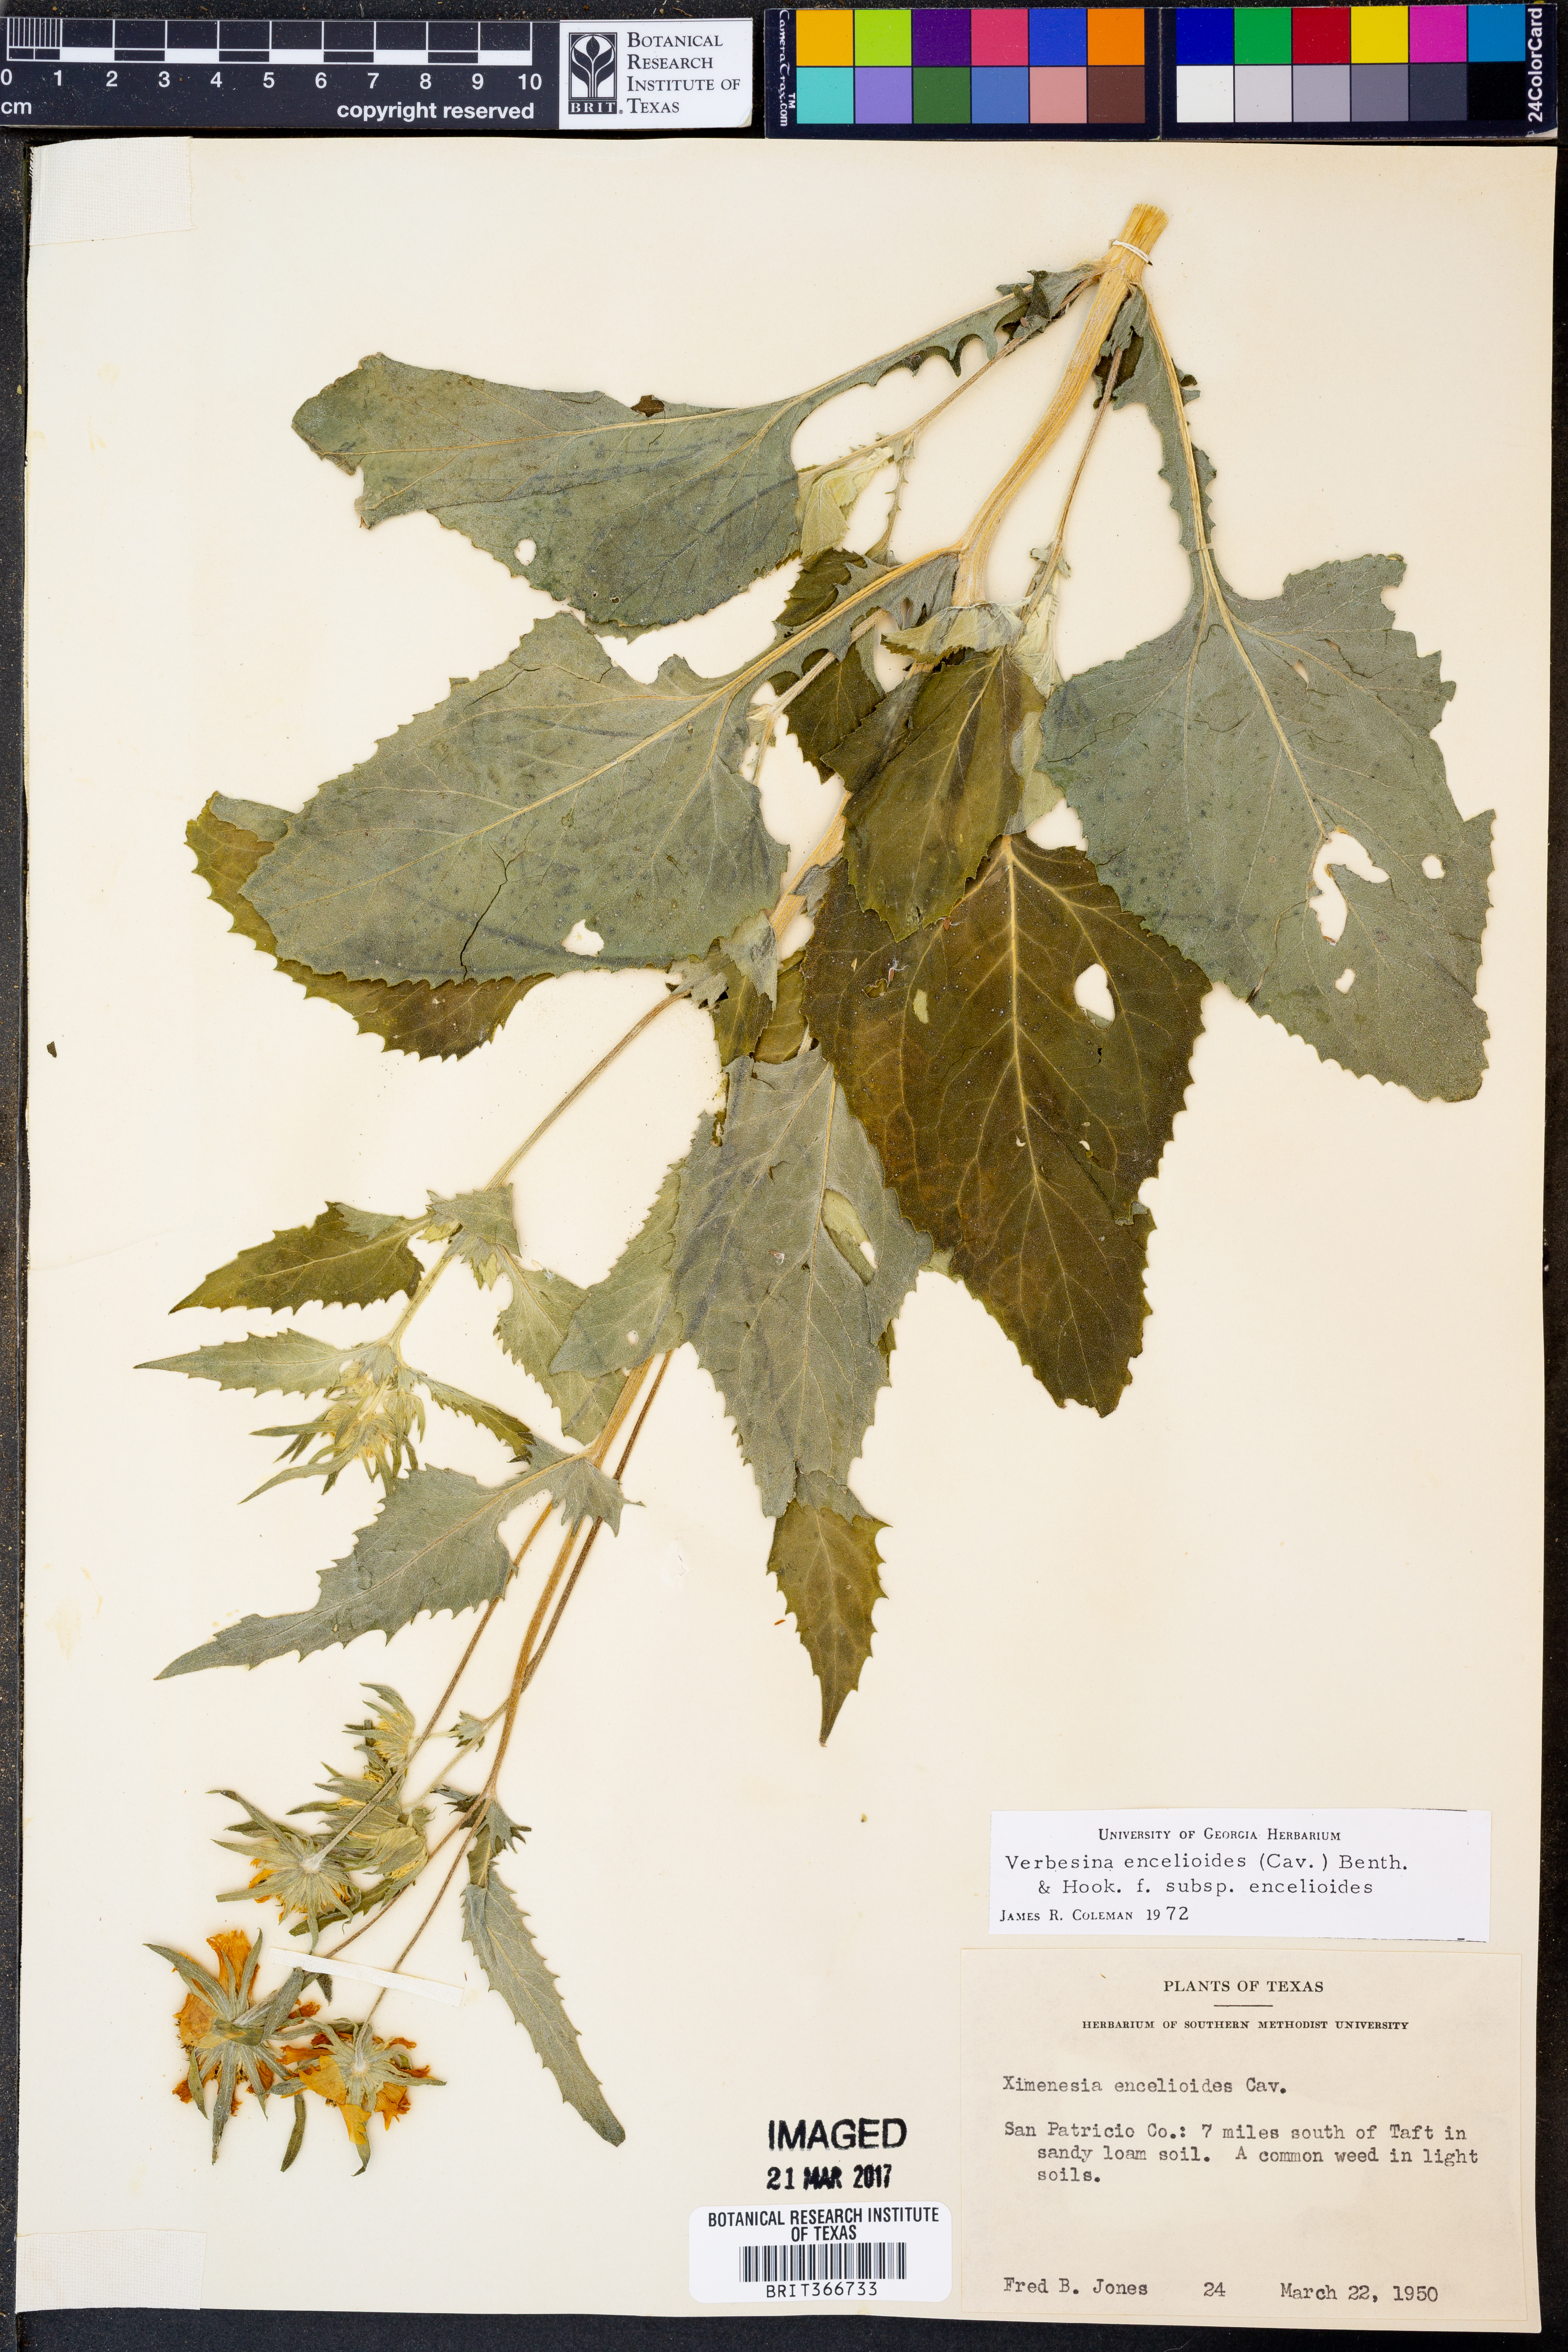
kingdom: Plantae
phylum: Tracheophyta
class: Magnoliopsida
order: Asterales
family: Asteraceae
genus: Verbesina
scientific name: Verbesina encelioides
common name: Golden crownbeard
